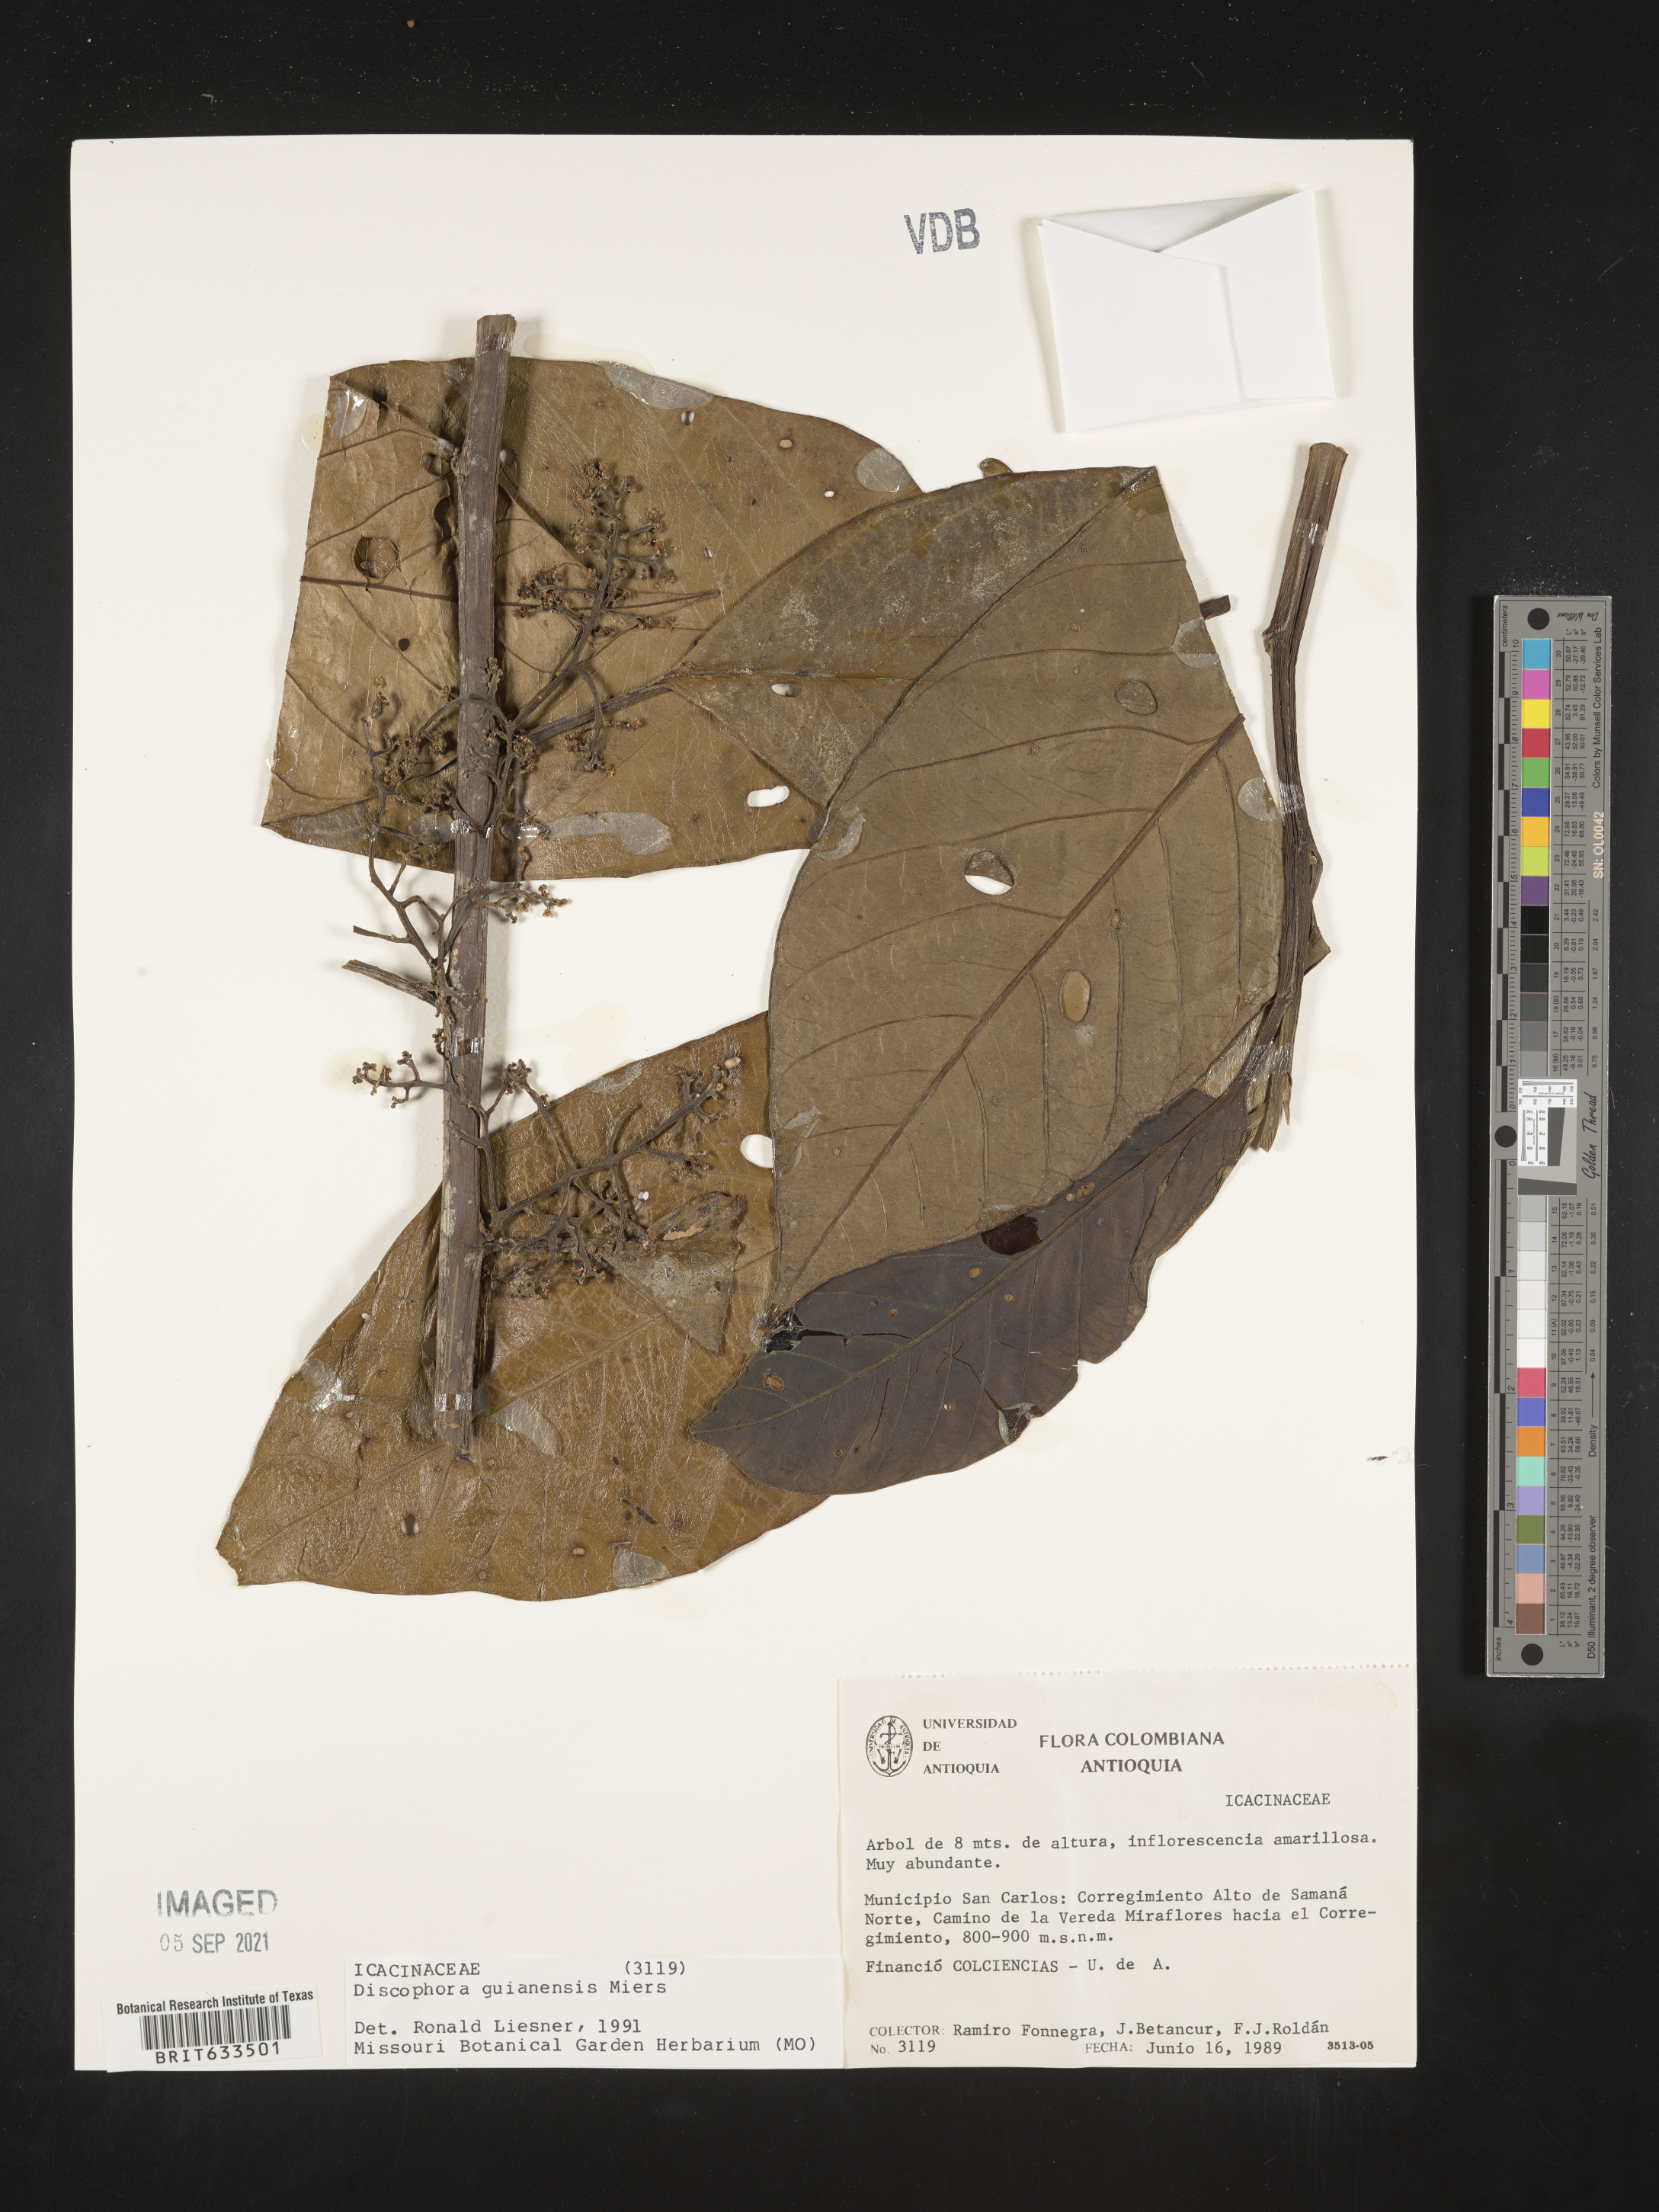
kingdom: Plantae
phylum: Tracheophyta
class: Magnoliopsida
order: Cardiopteridales
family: Stemonuraceae
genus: Discophora
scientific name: Discophora
